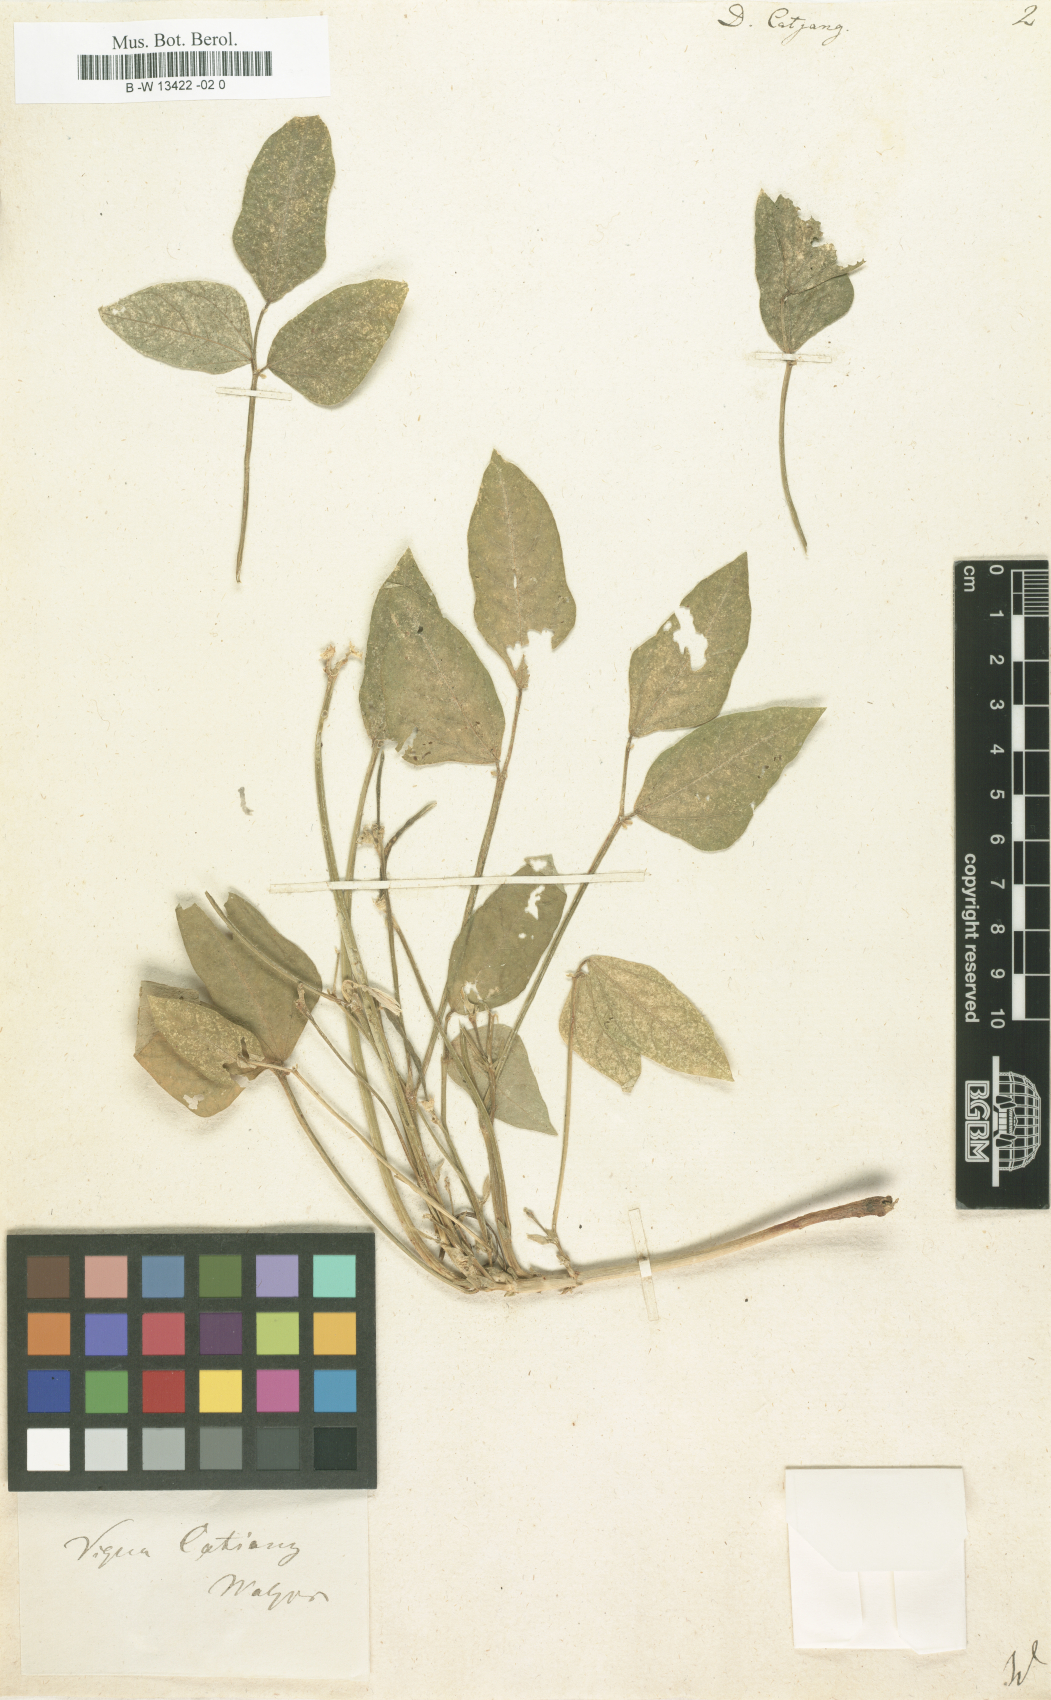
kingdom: Plantae
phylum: Tracheophyta
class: Magnoliopsida
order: Fabales
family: Fabaceae
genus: Vigna
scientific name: Vigna unguiculata
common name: Cowpea
